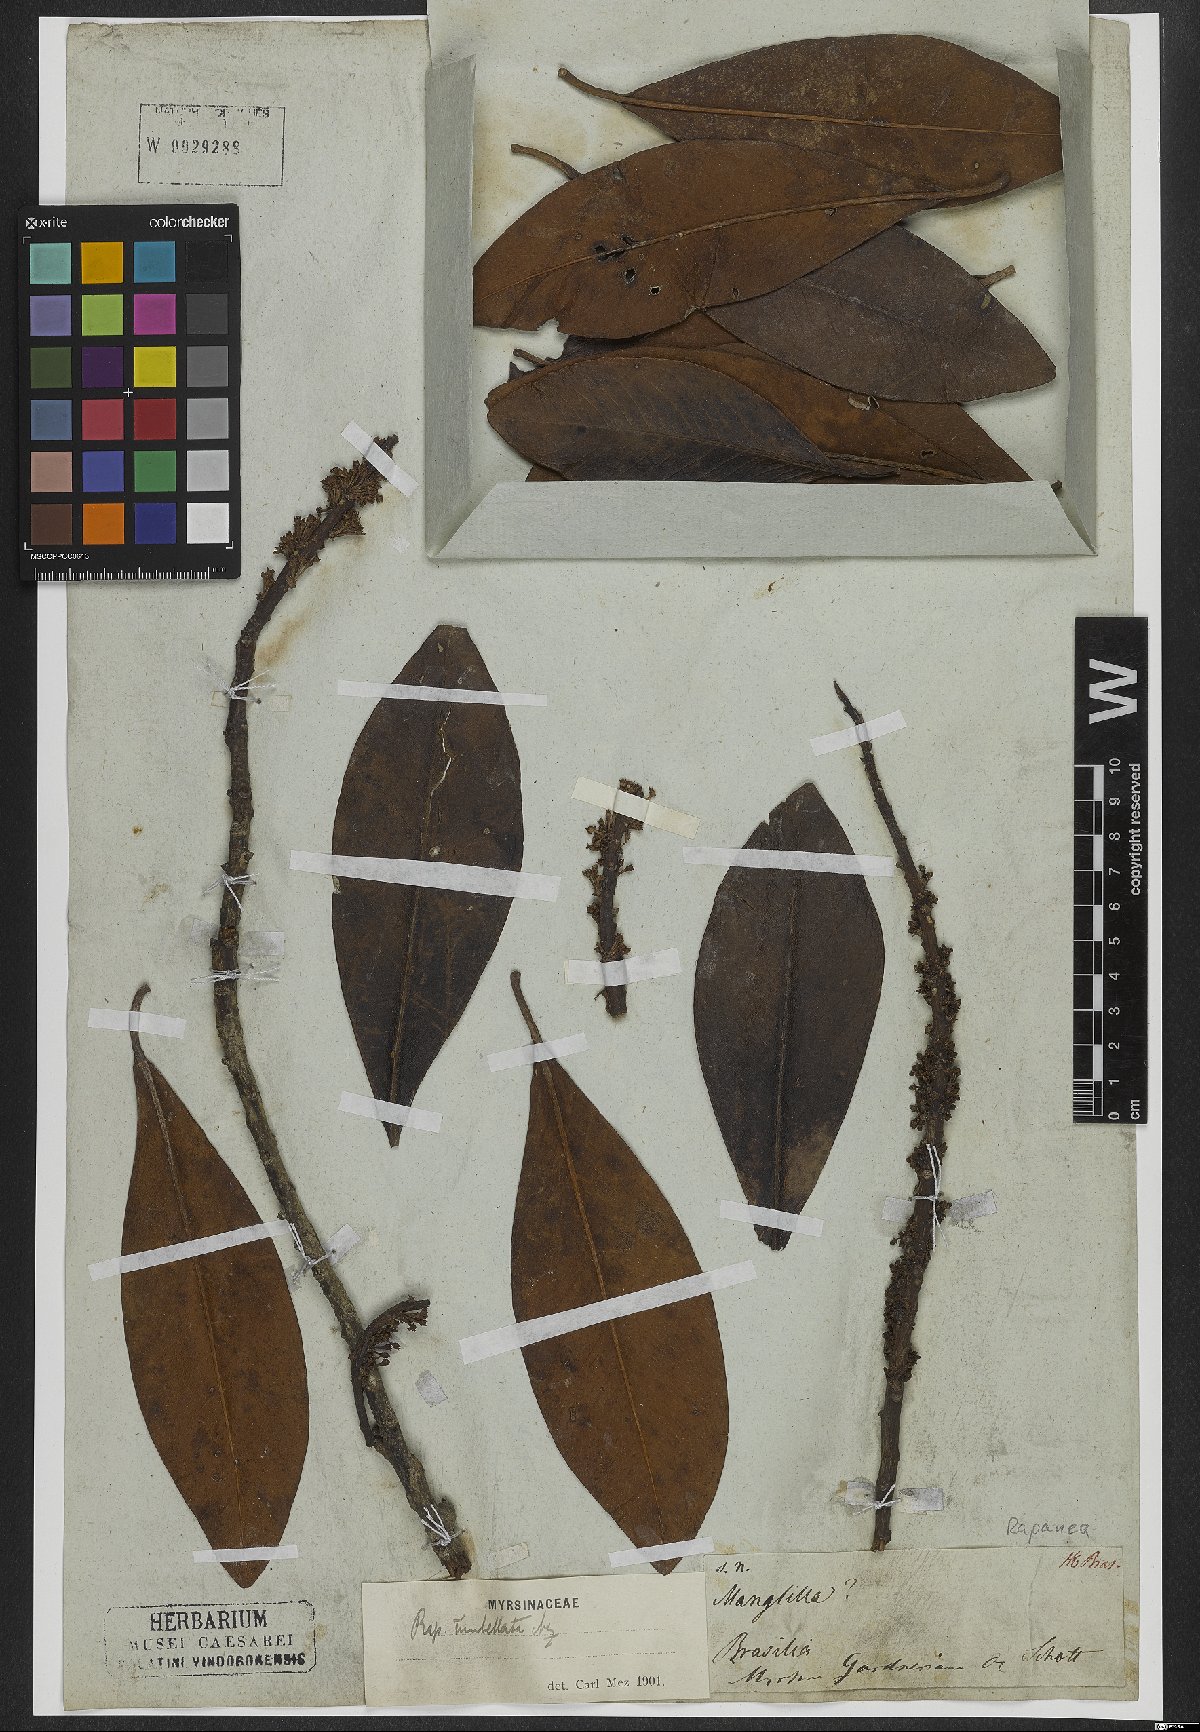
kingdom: Plantae
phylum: Tracheophyta
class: Magnoliopsida
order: Ericales
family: Primulaceae
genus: Myrsine
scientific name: Myrsine umbellata
